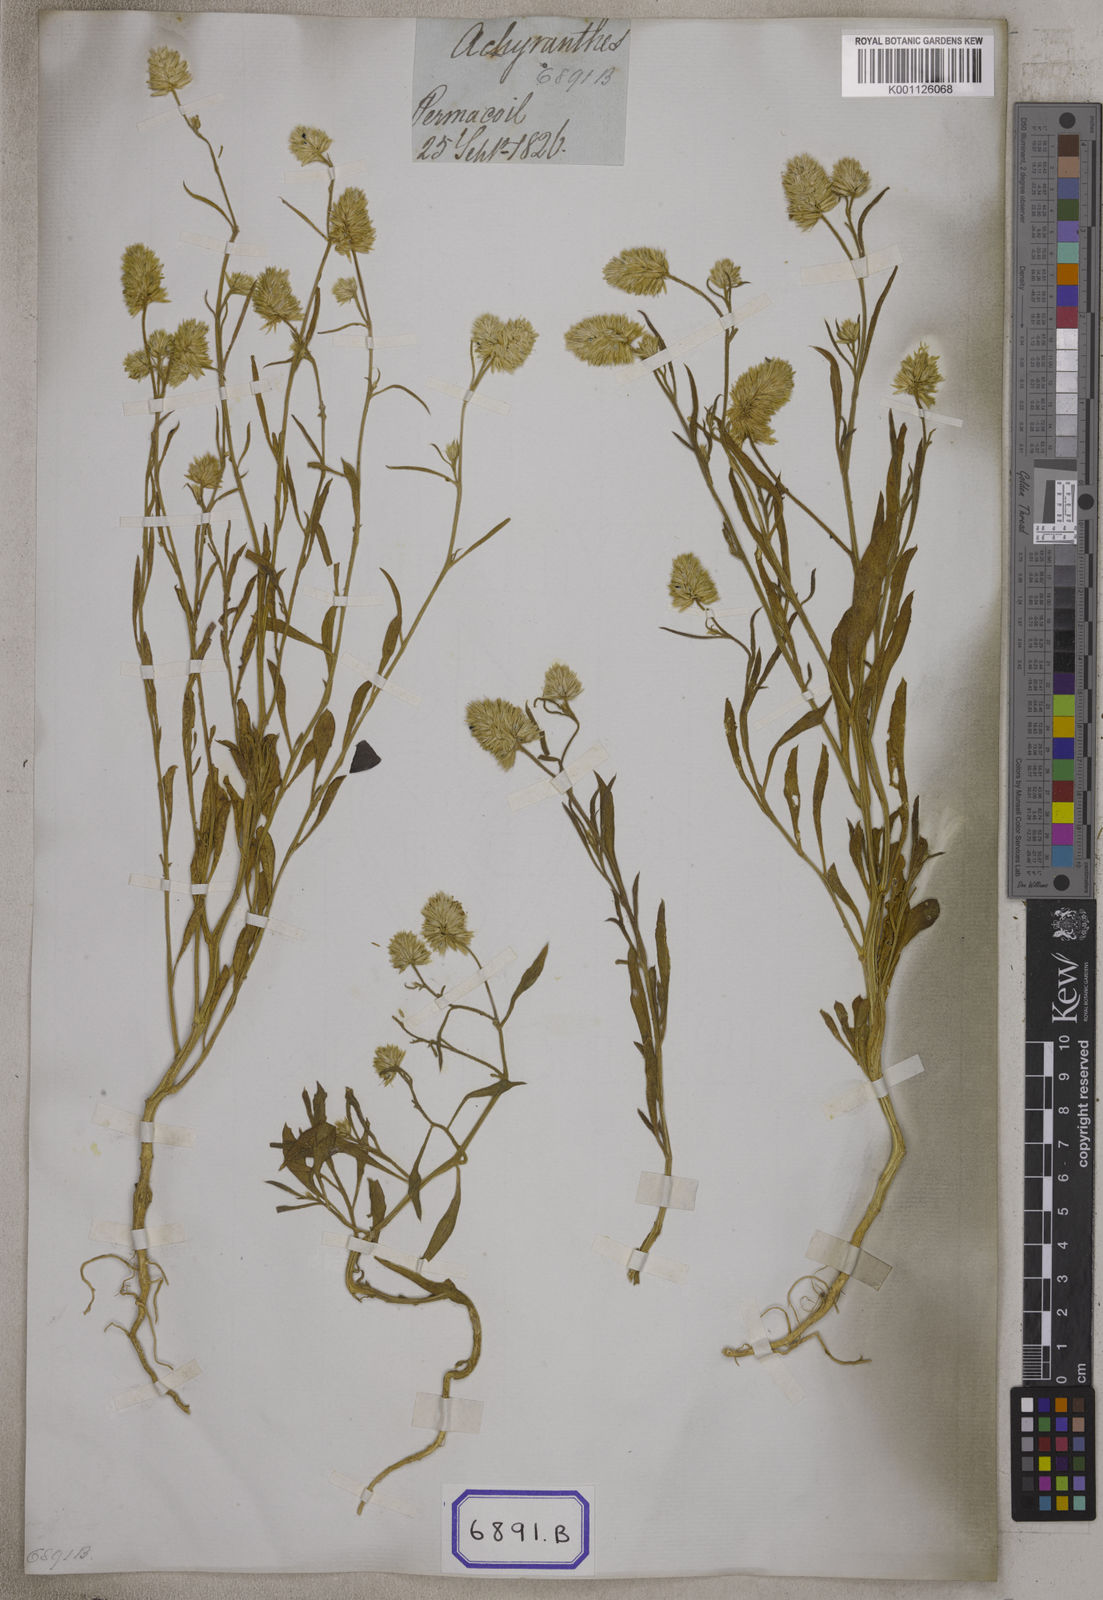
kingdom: Plantae
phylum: Tracheophyta
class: Magnoliopsida
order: Caryophyllales
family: Amaranthaceae
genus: Allmania
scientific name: Allmania
